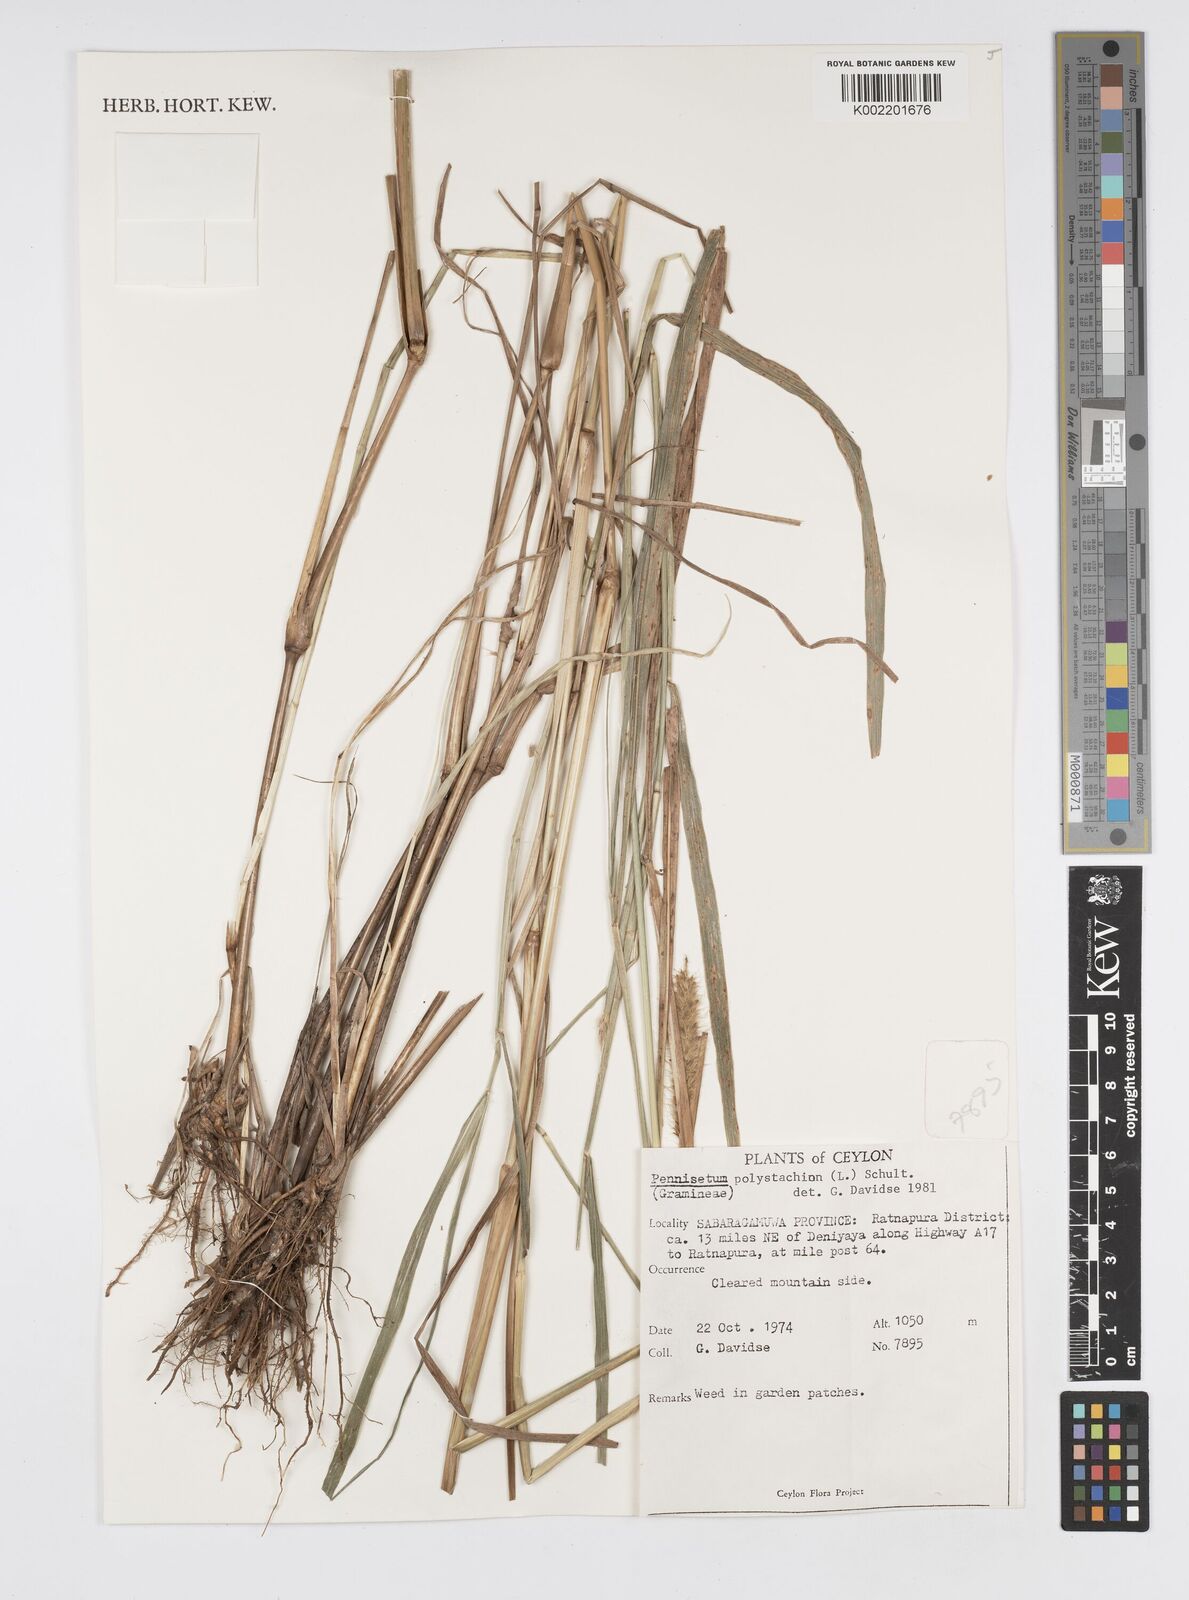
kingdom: Plantae
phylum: Tracheophyta
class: Liliopsida
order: Poales
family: Poaceae
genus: Setaria
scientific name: Setaria parviflora
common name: Knotroot bristle-grass
